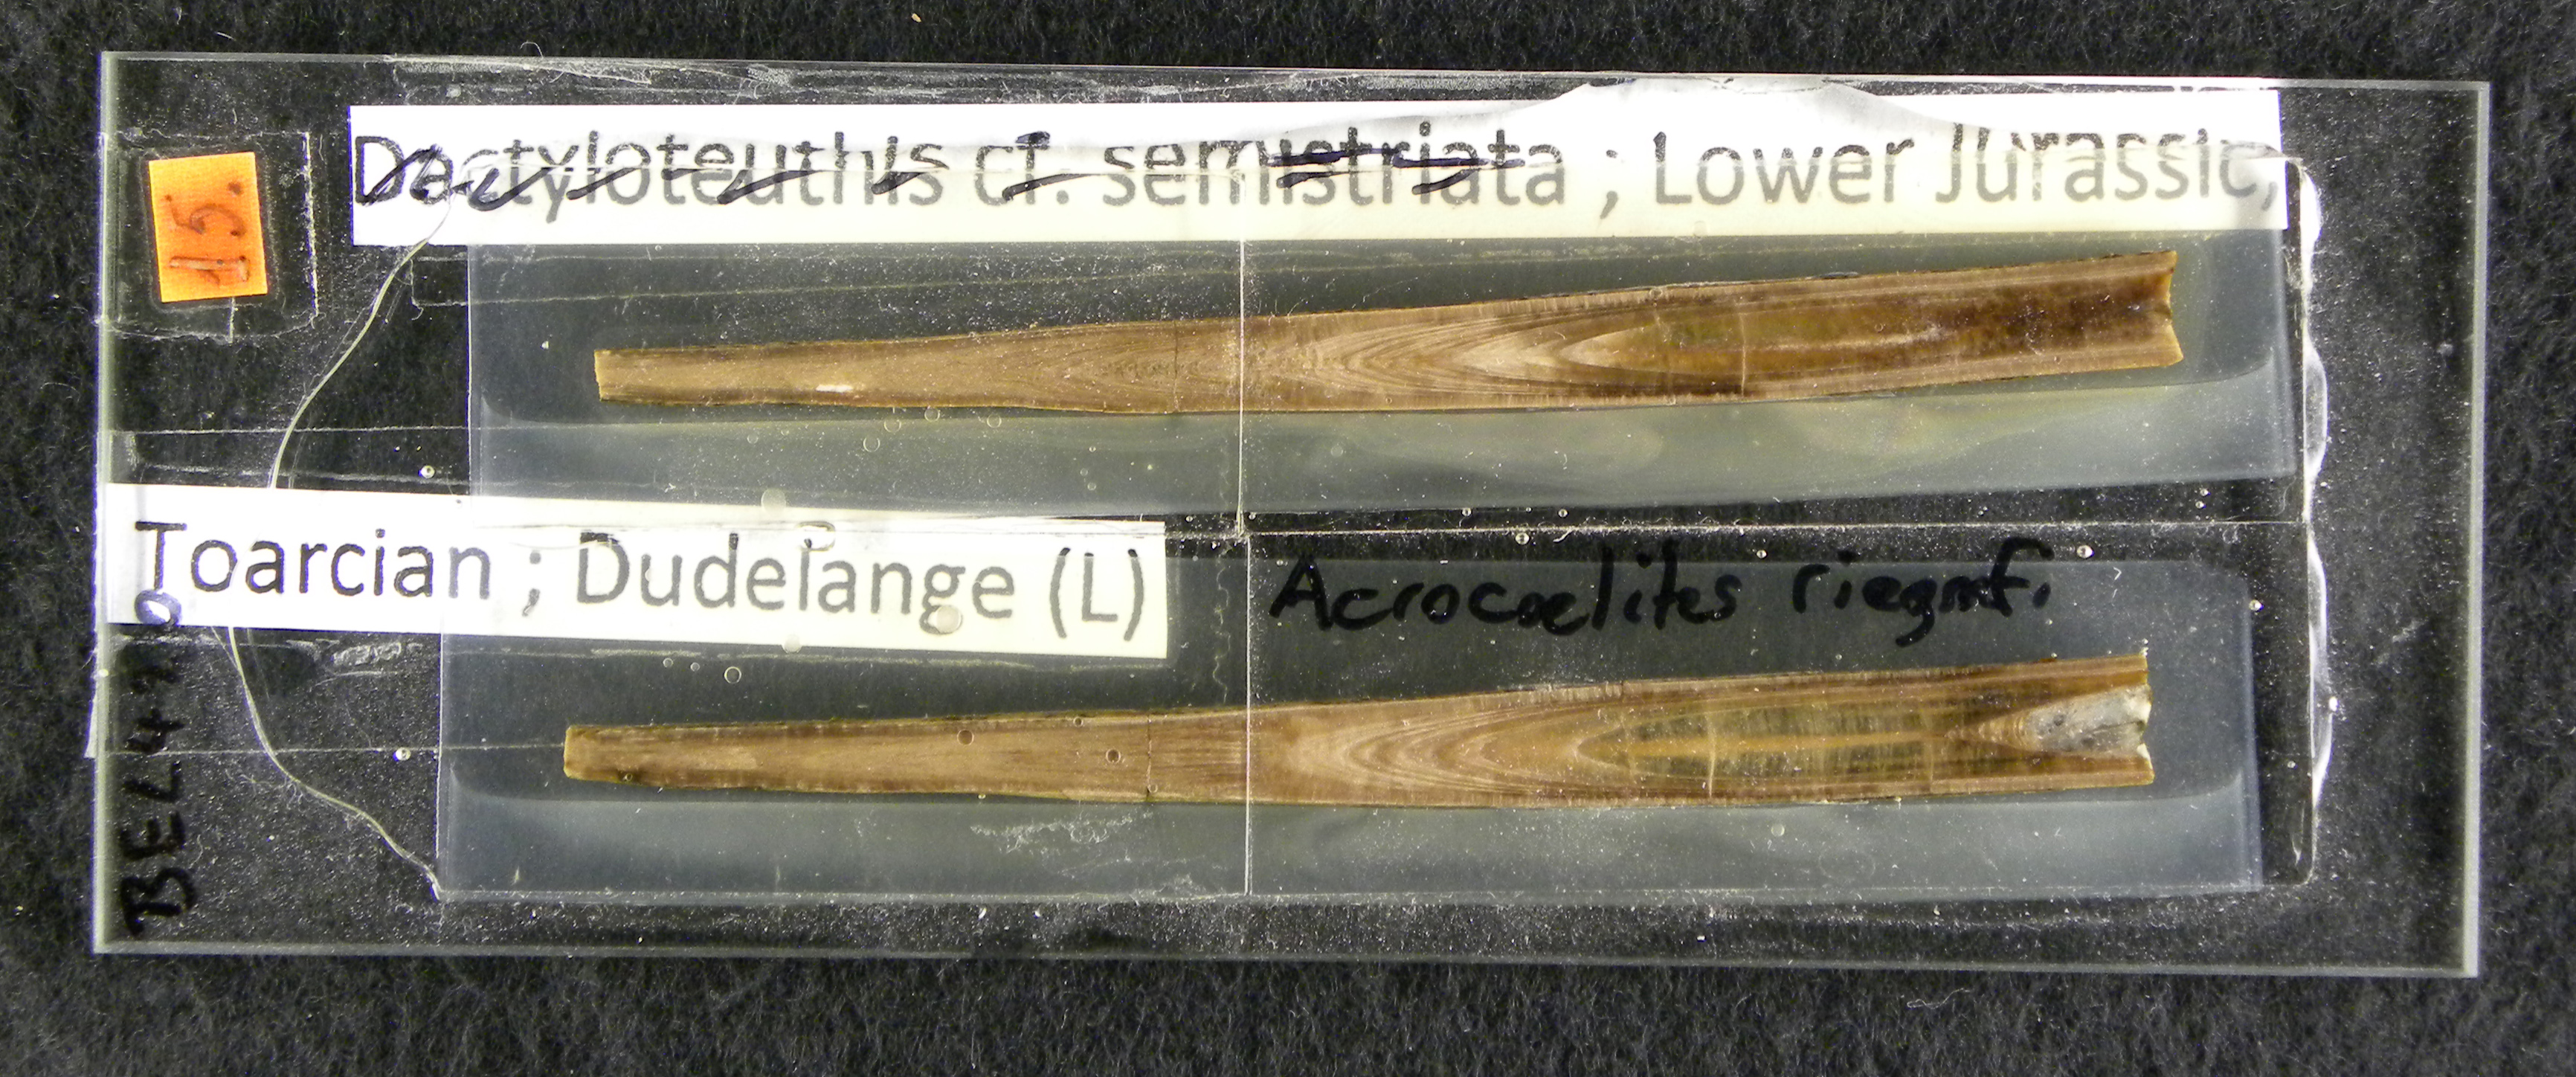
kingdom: Animalia
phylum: Mollusca
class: Cephalopoda
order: Belemnitida
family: Megateuthididae
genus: Acrocoelites
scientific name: Acrocoelites riegrafi
